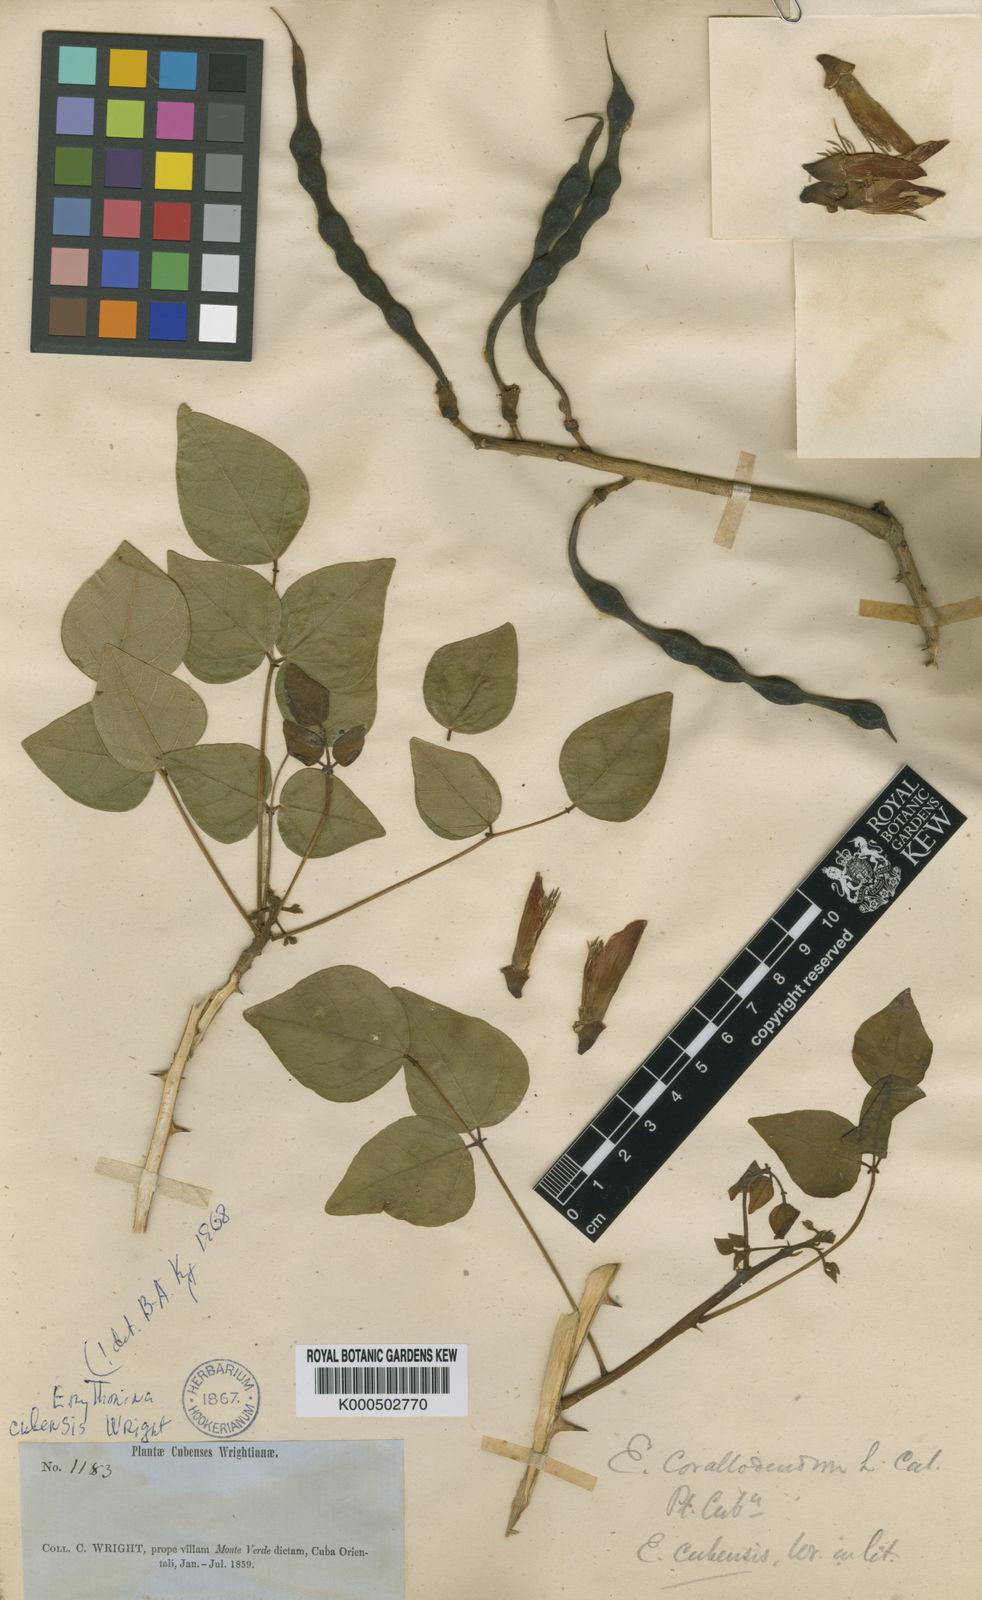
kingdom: Plantae
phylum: Tracheophyta
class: Magnoliopsida
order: Fabales
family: Fabaceae
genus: Erythrina
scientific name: Erythrina cubensis
